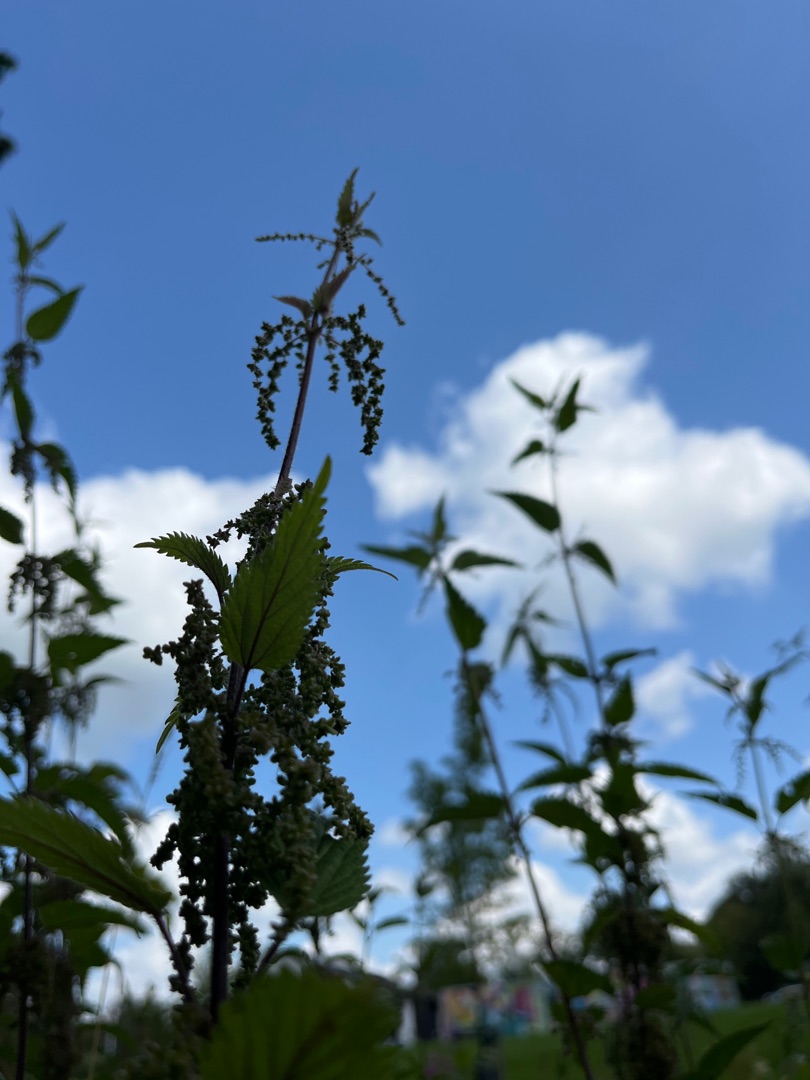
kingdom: Plantae
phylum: Tracheophyta
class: Magnoliopsida
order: Rosales
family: Urticaceae
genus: Urtica
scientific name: Urtica dioica
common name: Stor nælde
